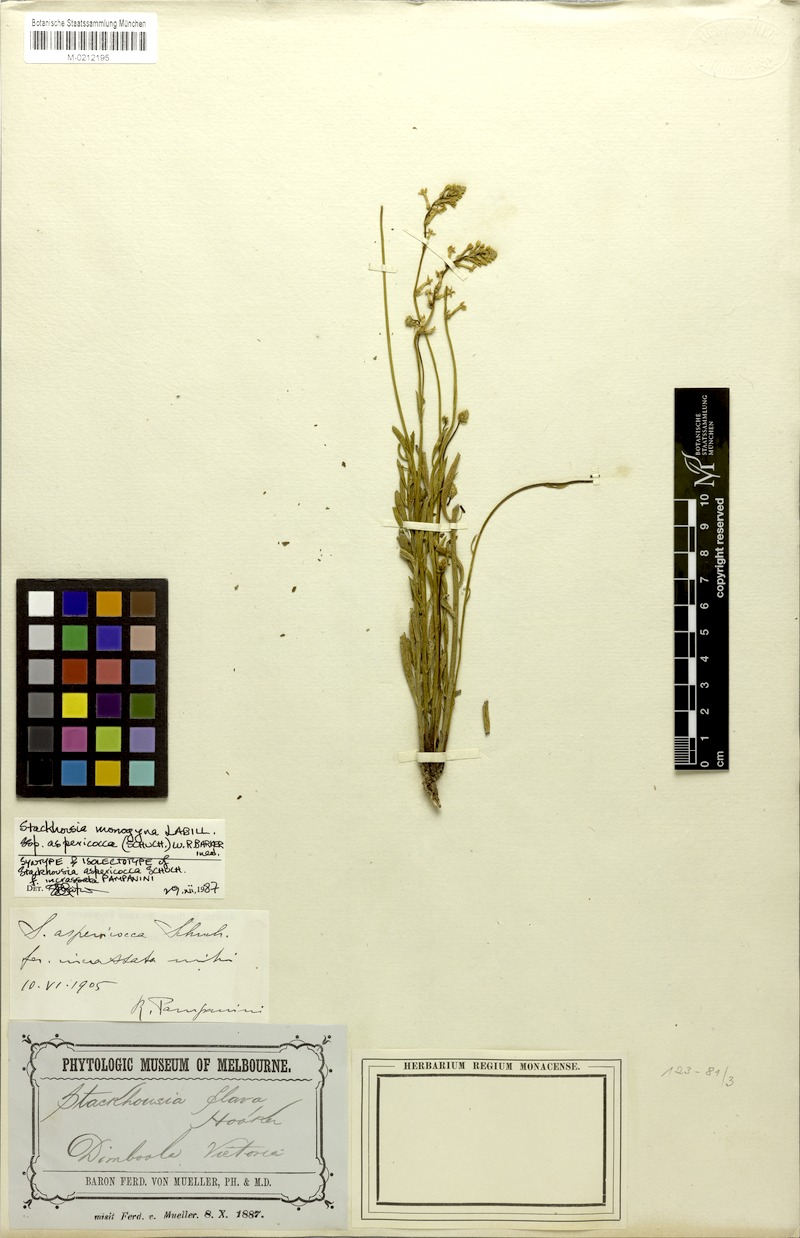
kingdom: Plantae
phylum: Tracheophyta
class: Magnoliopsida
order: Celastrales
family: Celastraceae
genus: Stackhousia
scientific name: Stackhousia monogyna
